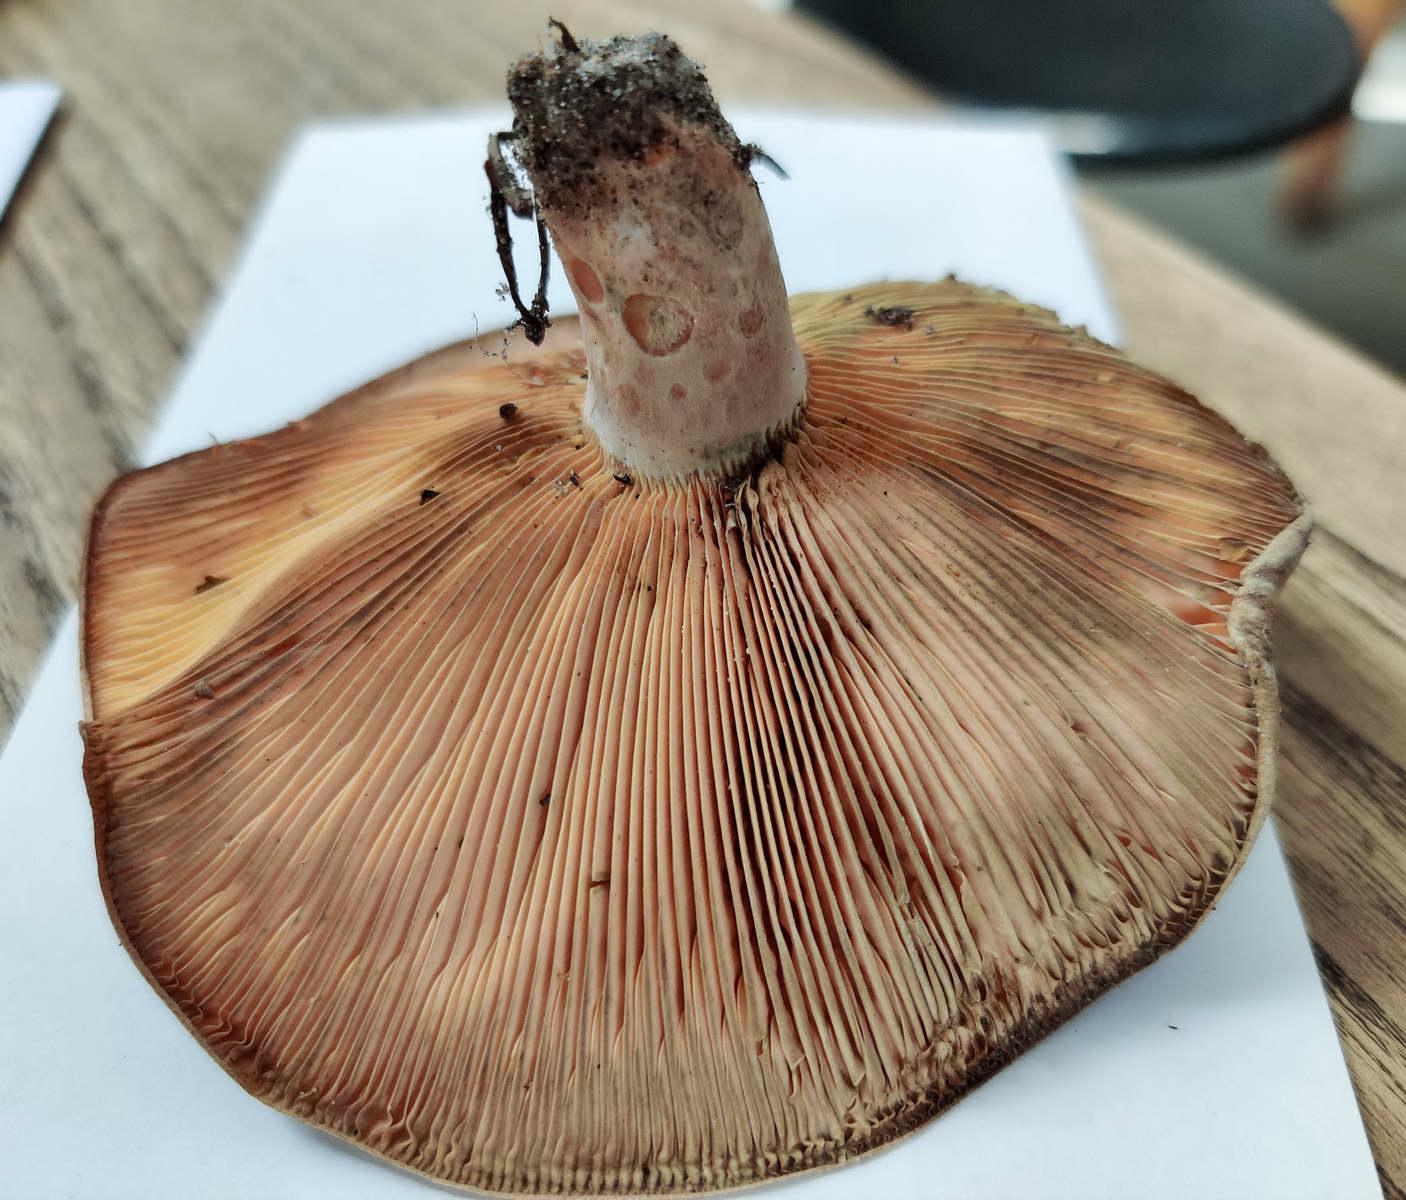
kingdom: Fungi
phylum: Basidiomycota
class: Agaricomycetes
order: Russulales
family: Russulaceae
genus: Lactarius
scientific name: Lactarius deliciosus
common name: velsmagende mælkehat
